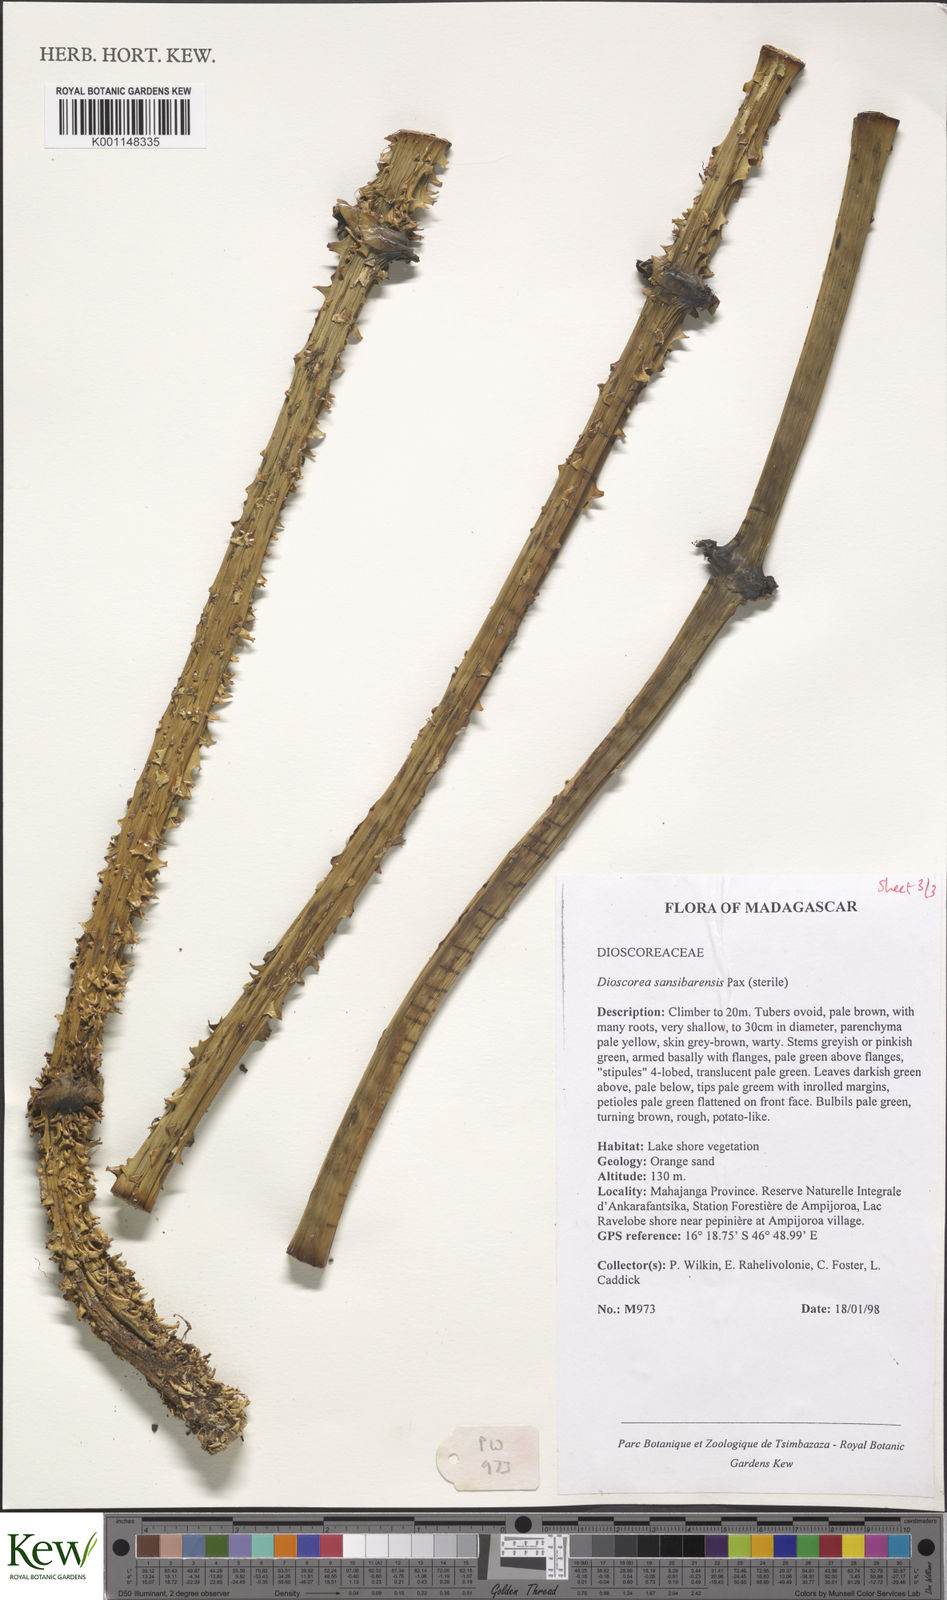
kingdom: Plantae
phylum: Tracheophyta
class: Liliopsida
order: Dioscoreales
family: Dioscoreaceae
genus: Dioscorea
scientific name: Dioscorea sansibarensis
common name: Zanzibar yam
